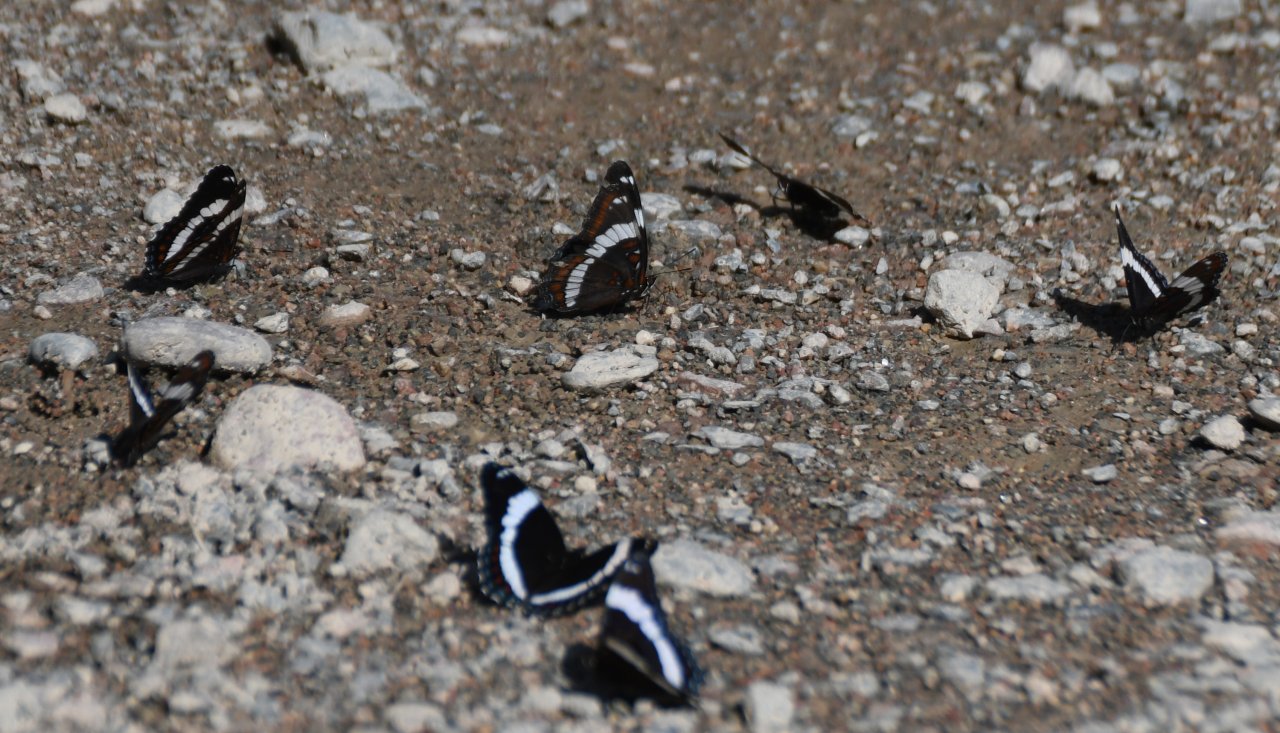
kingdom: Animalia
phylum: Arthropoda
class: Insecta
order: Lepidoptera
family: Nymphalidae
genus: Limenitis
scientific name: Limenitis arthemis
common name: Red-spotted Admiral
